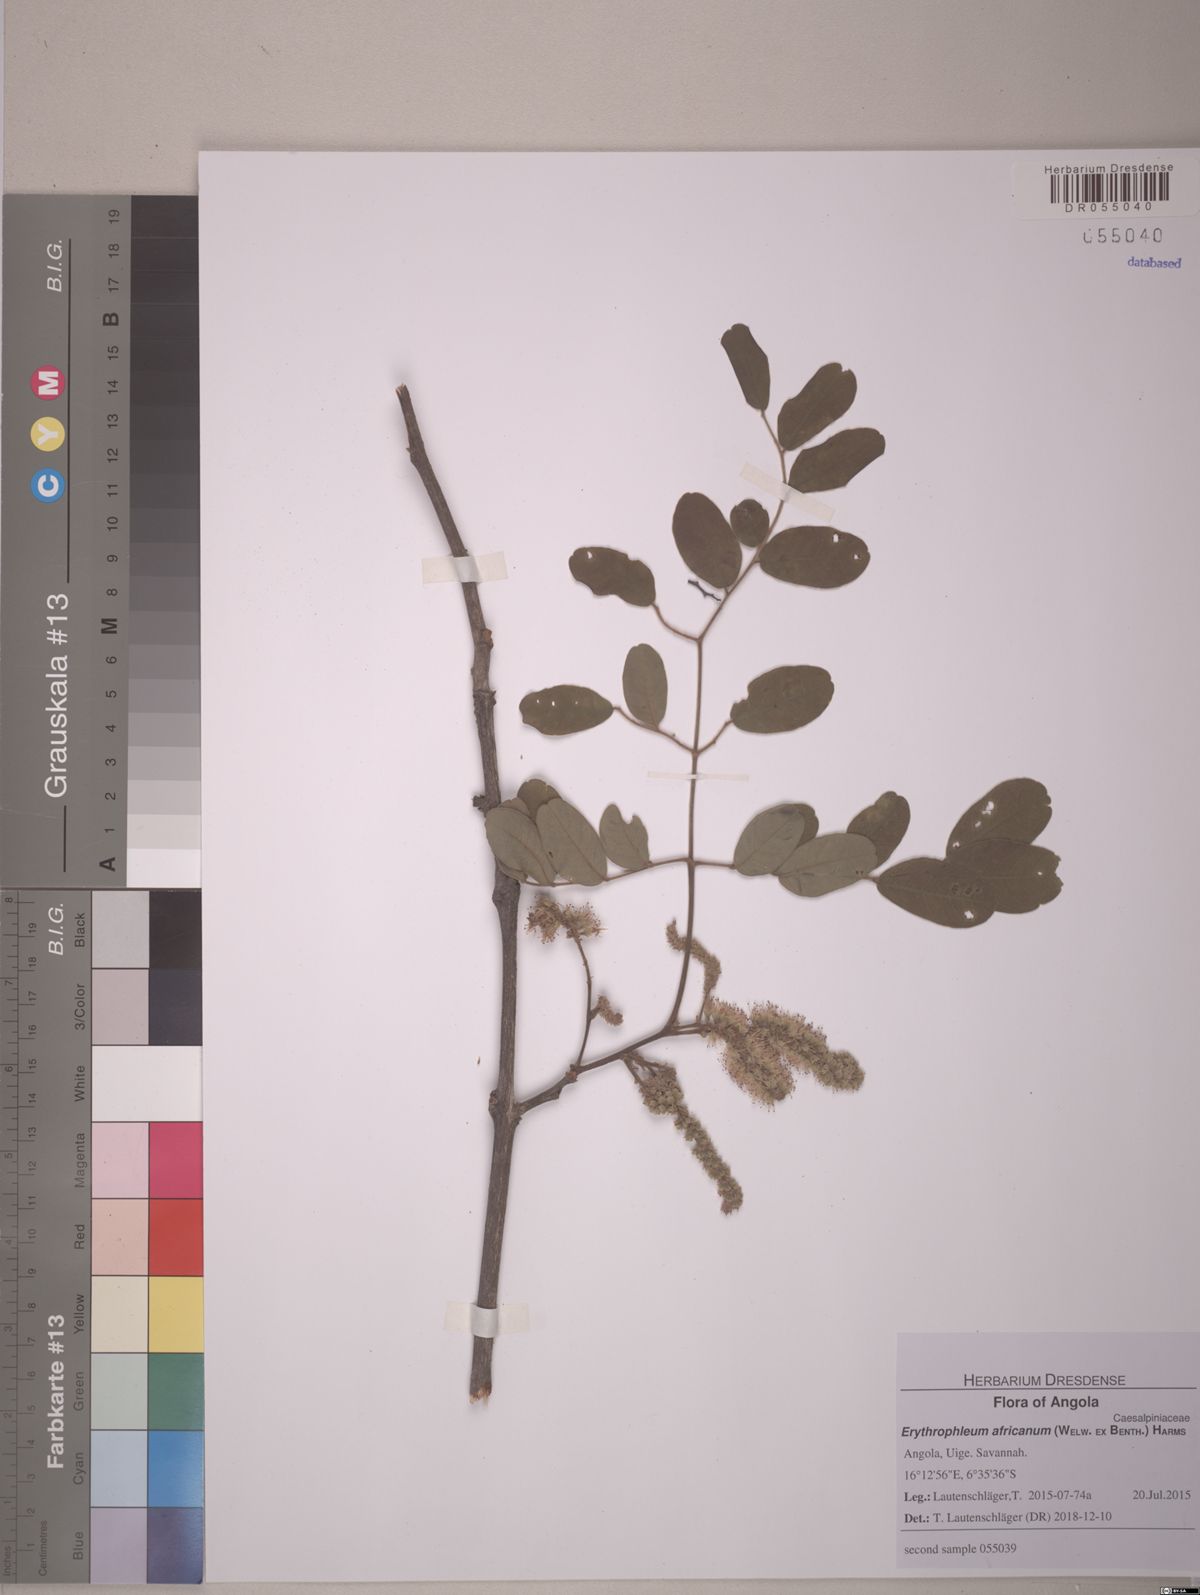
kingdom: Plantae
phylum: Tracheophyta
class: Magnoliopsida
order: Fabales
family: Fabaceae
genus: Erythrophleum
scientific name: Erythrophleum africanum
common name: African blackwood
